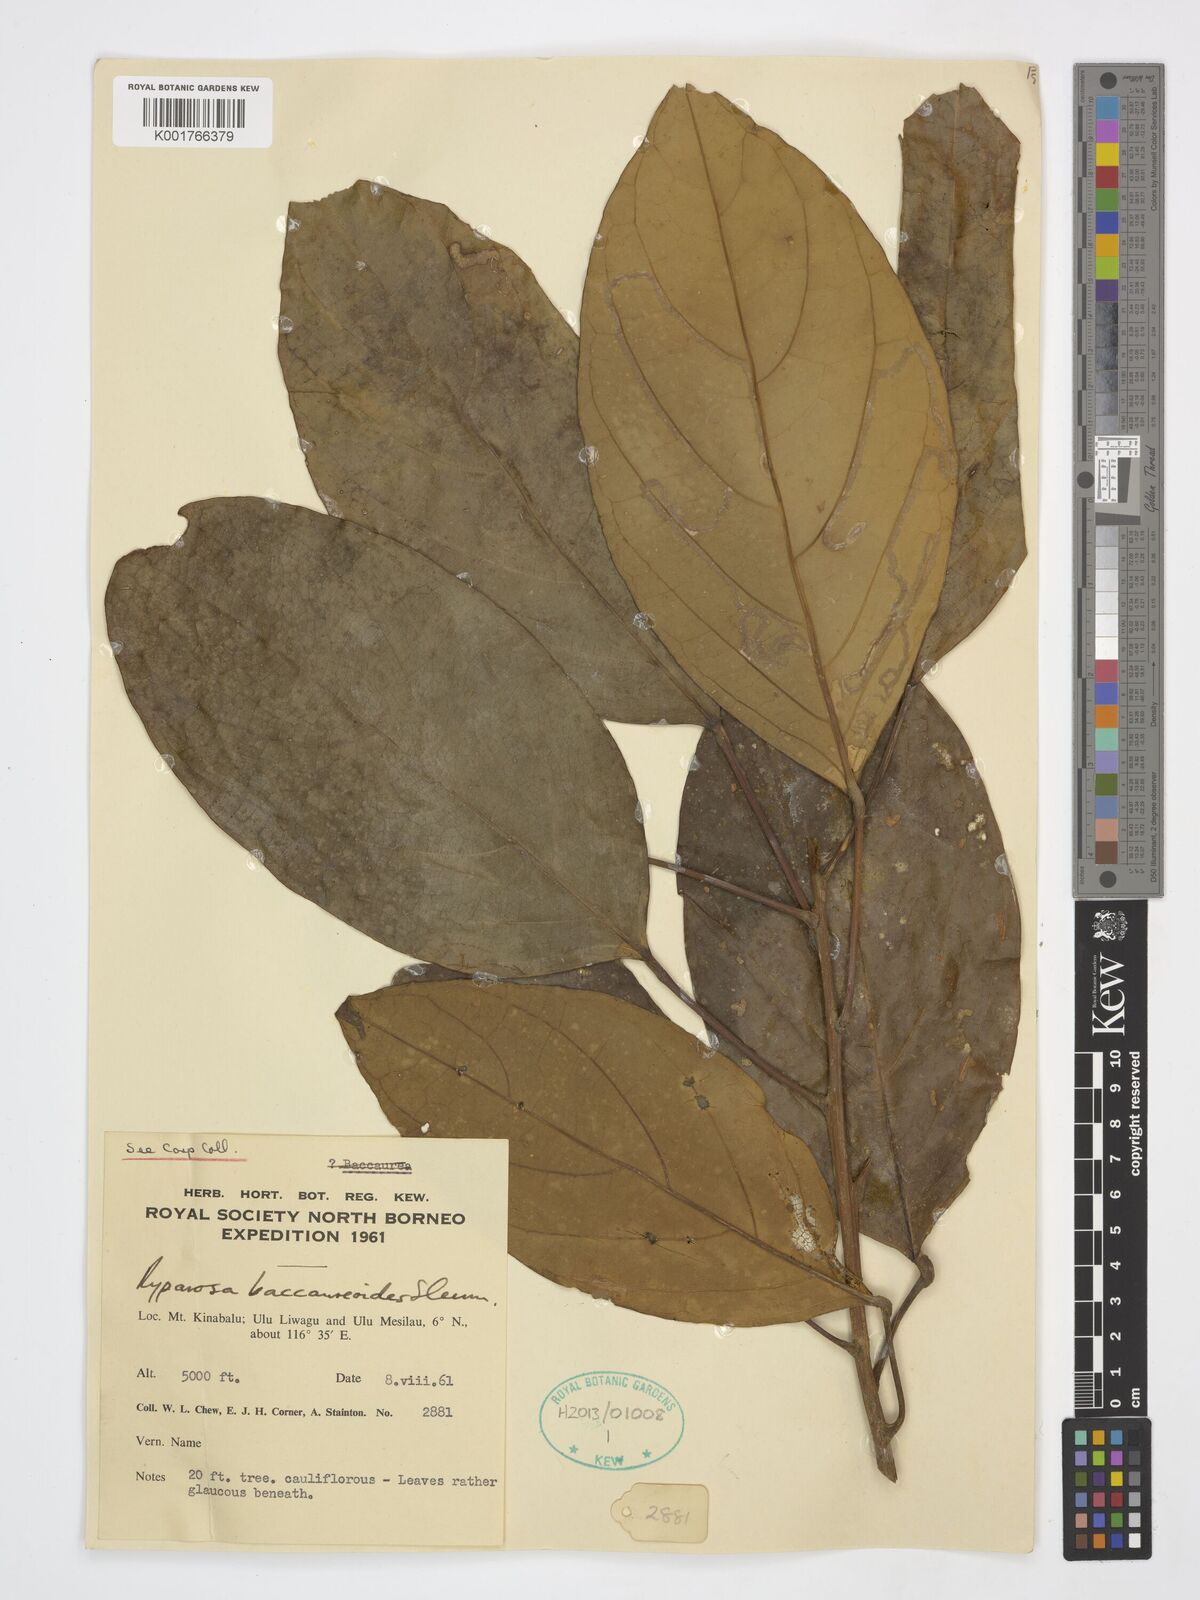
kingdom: Plantae
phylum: Tracheophyta
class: Magnoliopsida
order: Malpighiales
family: Achariaceae
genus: Ryparosa
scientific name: Ryparosa baccaureoides
